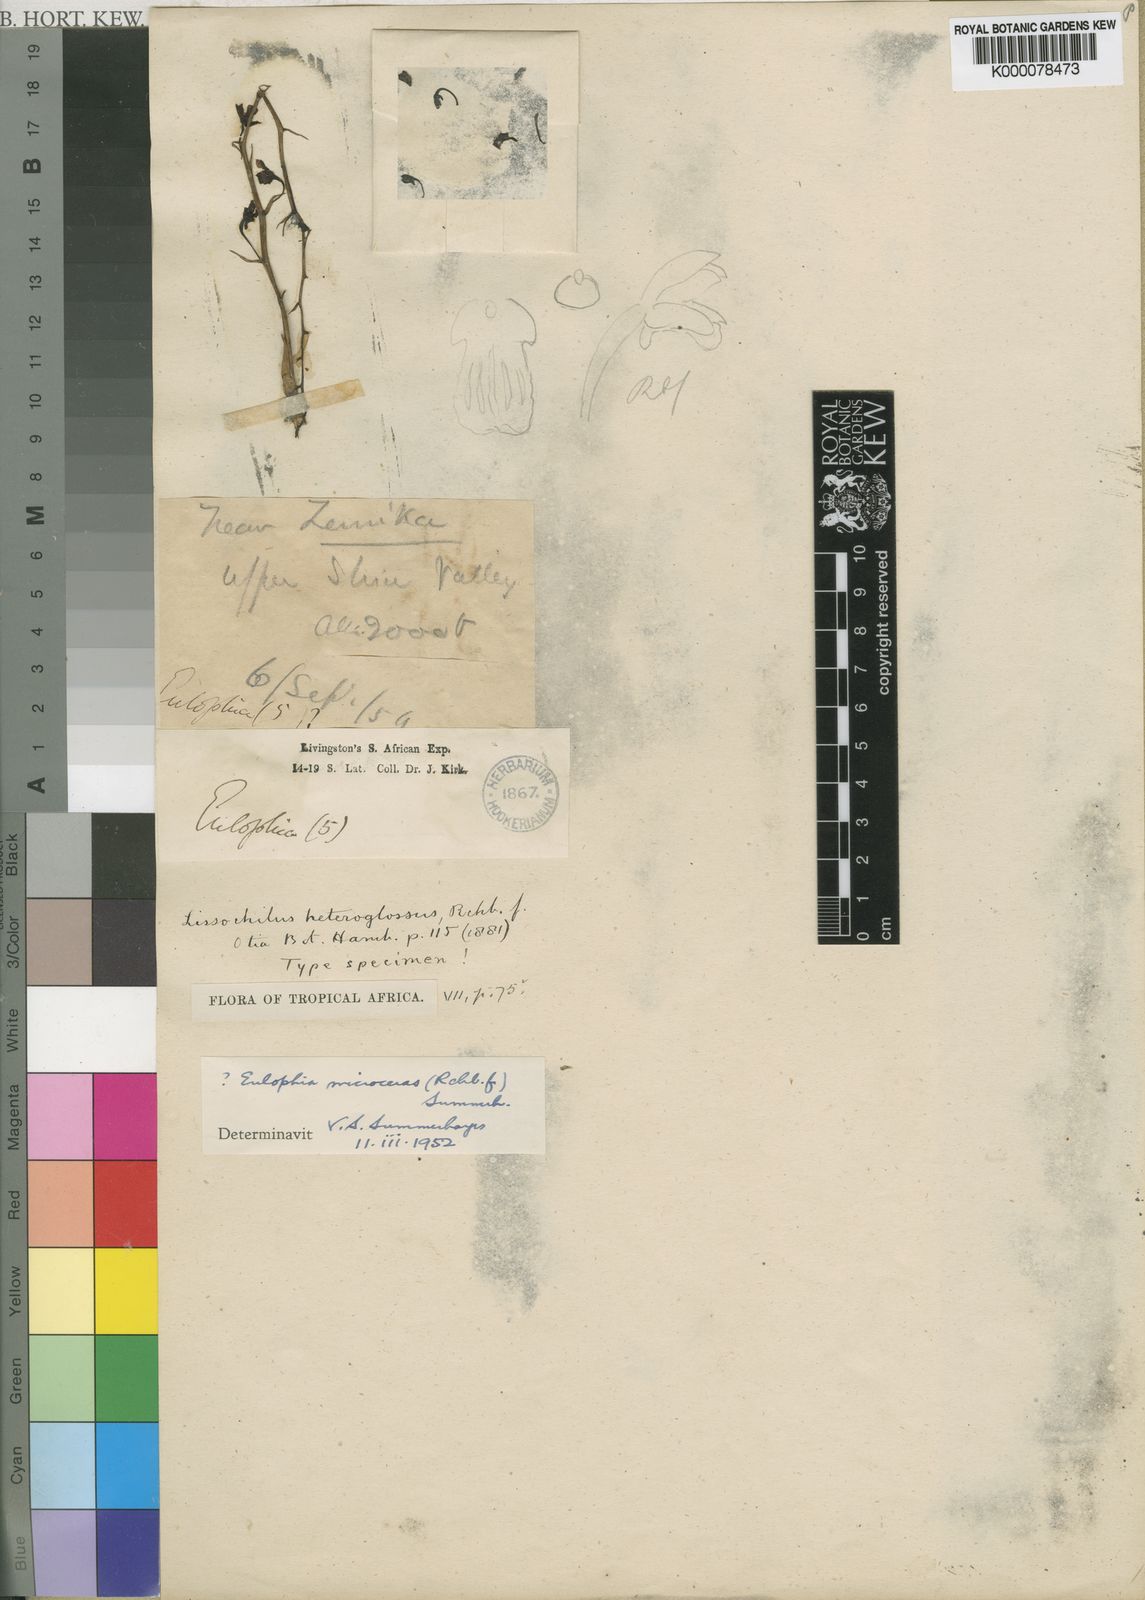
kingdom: Plantae
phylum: Tracheophyta
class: Liliopsida
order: Asparagales
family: Orchidaceae
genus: Eulophia
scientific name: Eulophia pyrophila
